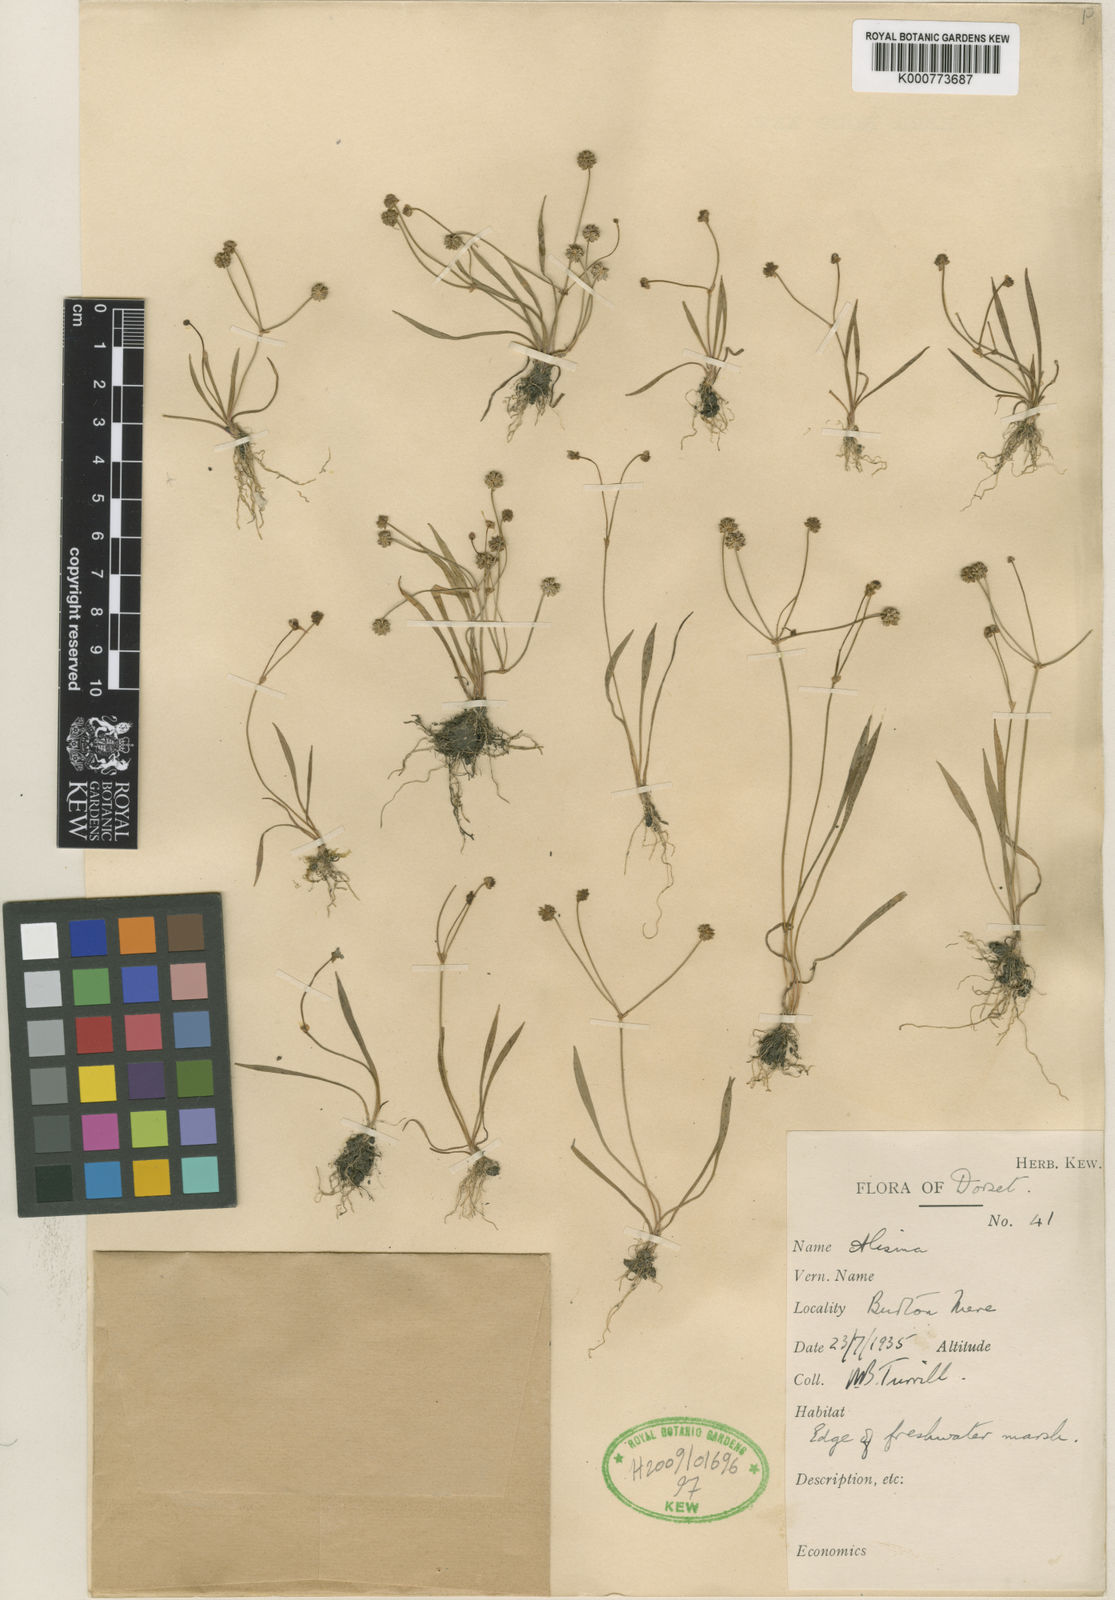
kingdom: Plantae
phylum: Tracheophyta
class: Liliopsida
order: Alismatales
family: Alismataceae
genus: Baldellia
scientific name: Baldellia ranunculoides
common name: Lesser water-plantain
